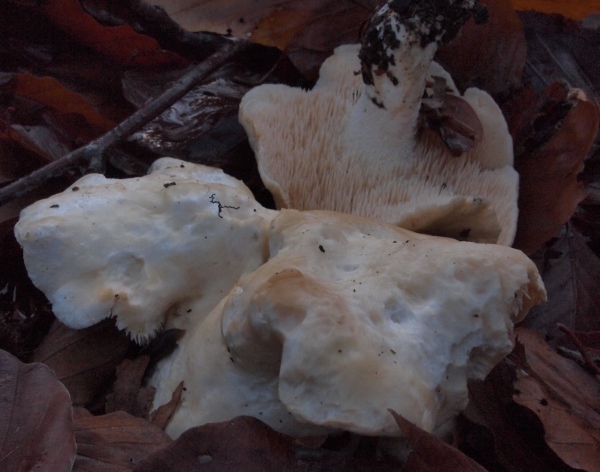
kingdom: Fungi
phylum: Basidiomycota
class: Agaricomycetes
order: Cantharellales
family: Hydnaceae
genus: Hydnum
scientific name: Hydnum repandum
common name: almindelig pigsvamp
